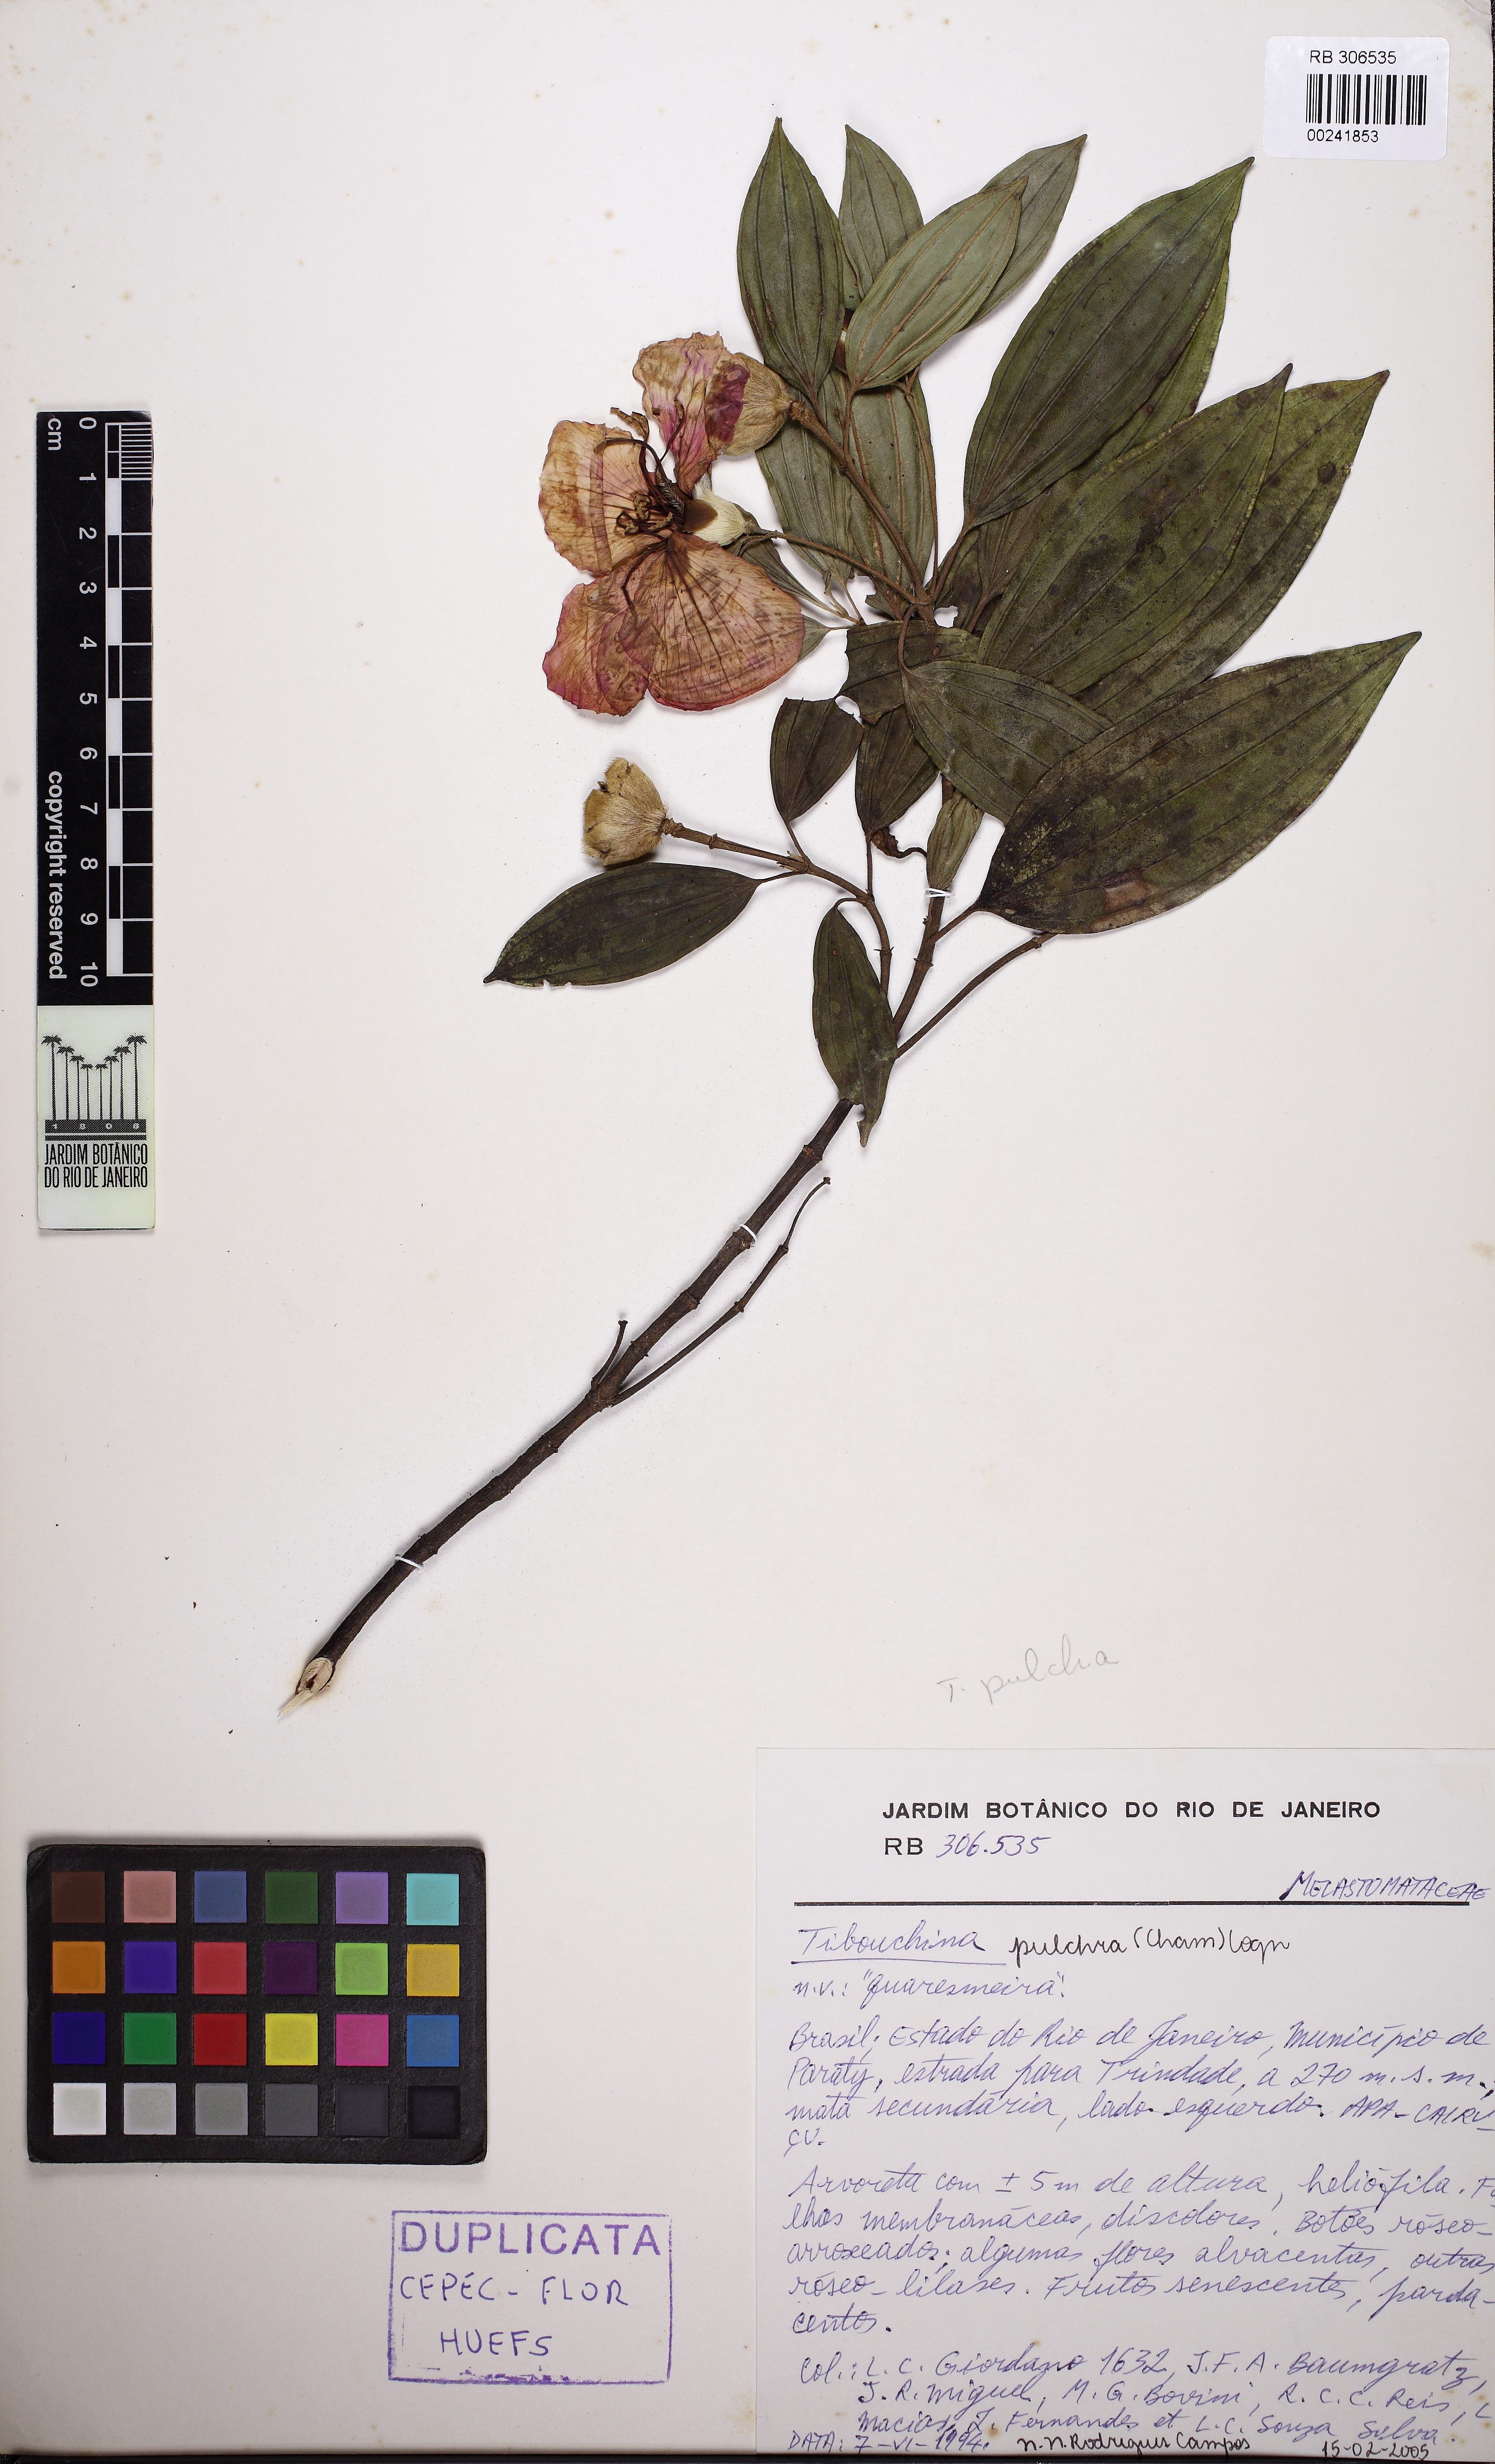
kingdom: Plantae
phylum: Tracheophyta
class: Magnoliopsida
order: Myrtales
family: Melastomataceae
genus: Pleroma
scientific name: Pleroma raddianum
